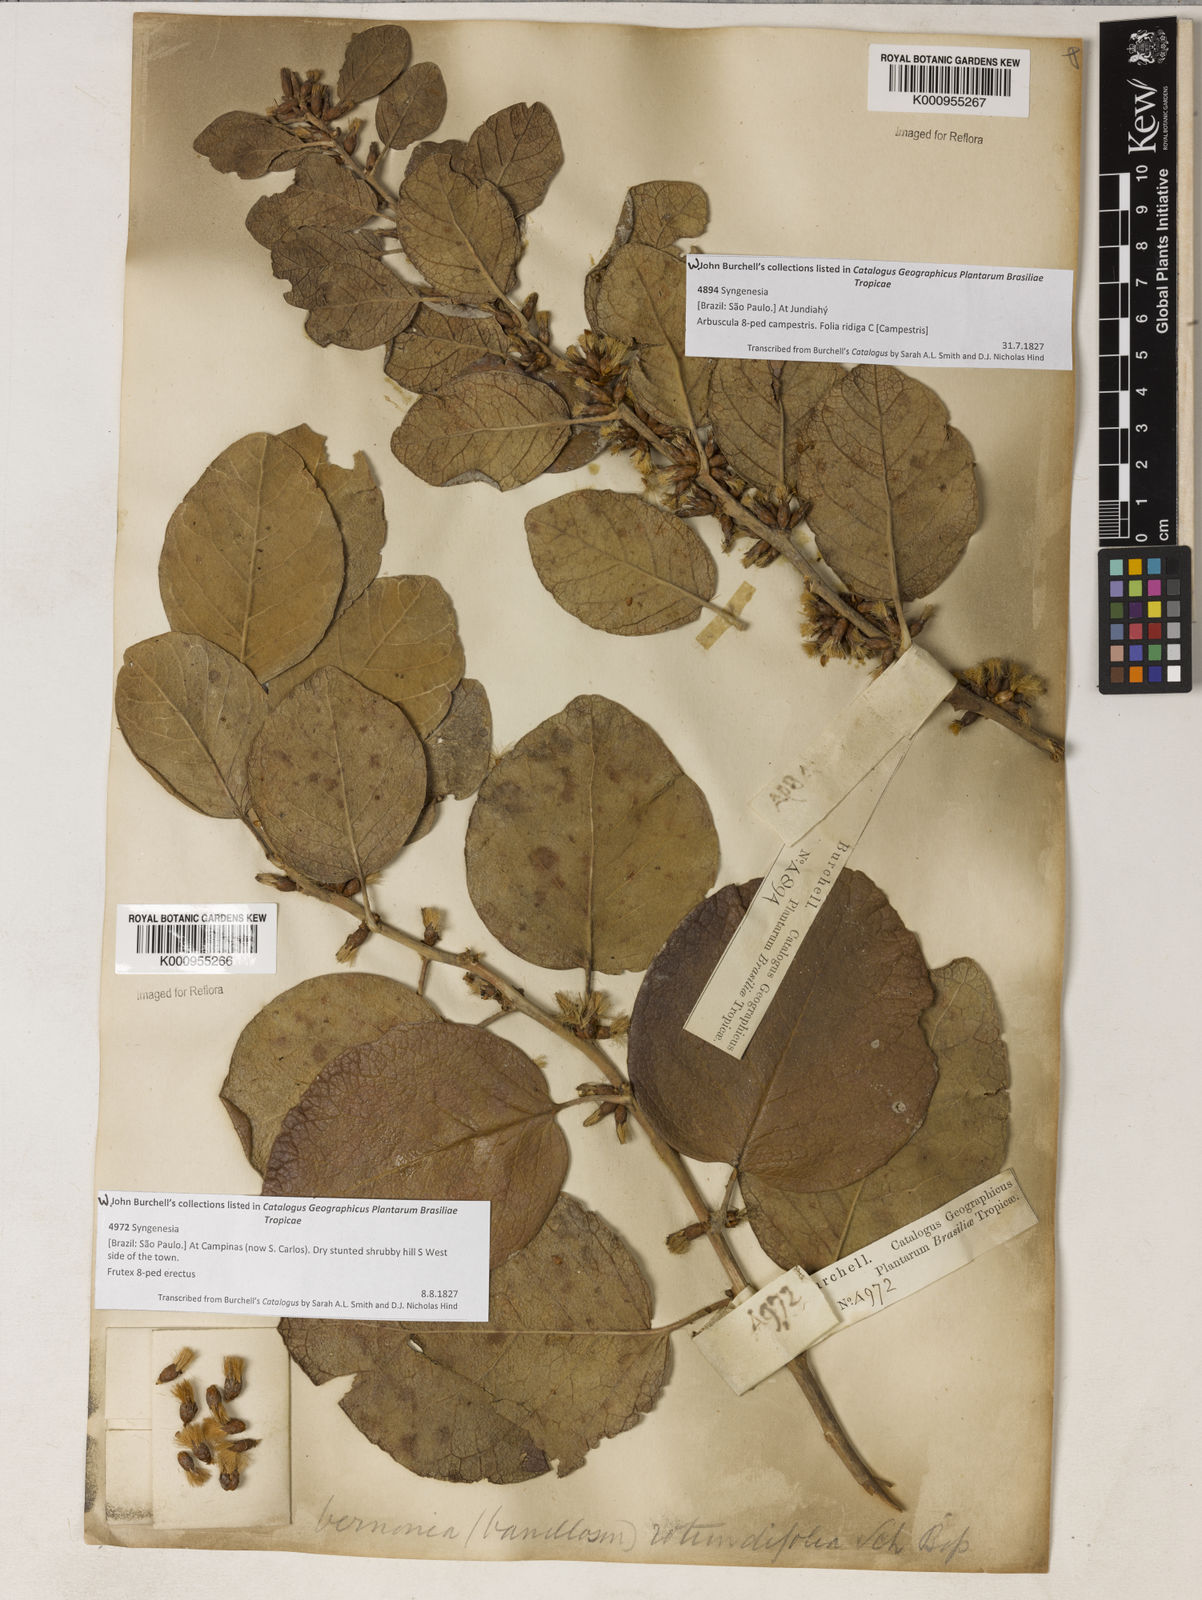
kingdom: Plantae
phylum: Tracheophyta
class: Magnoliopsida
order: Asterales
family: Asteraceae
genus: Piptocarpha
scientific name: Piptocarpha rotundifolia
